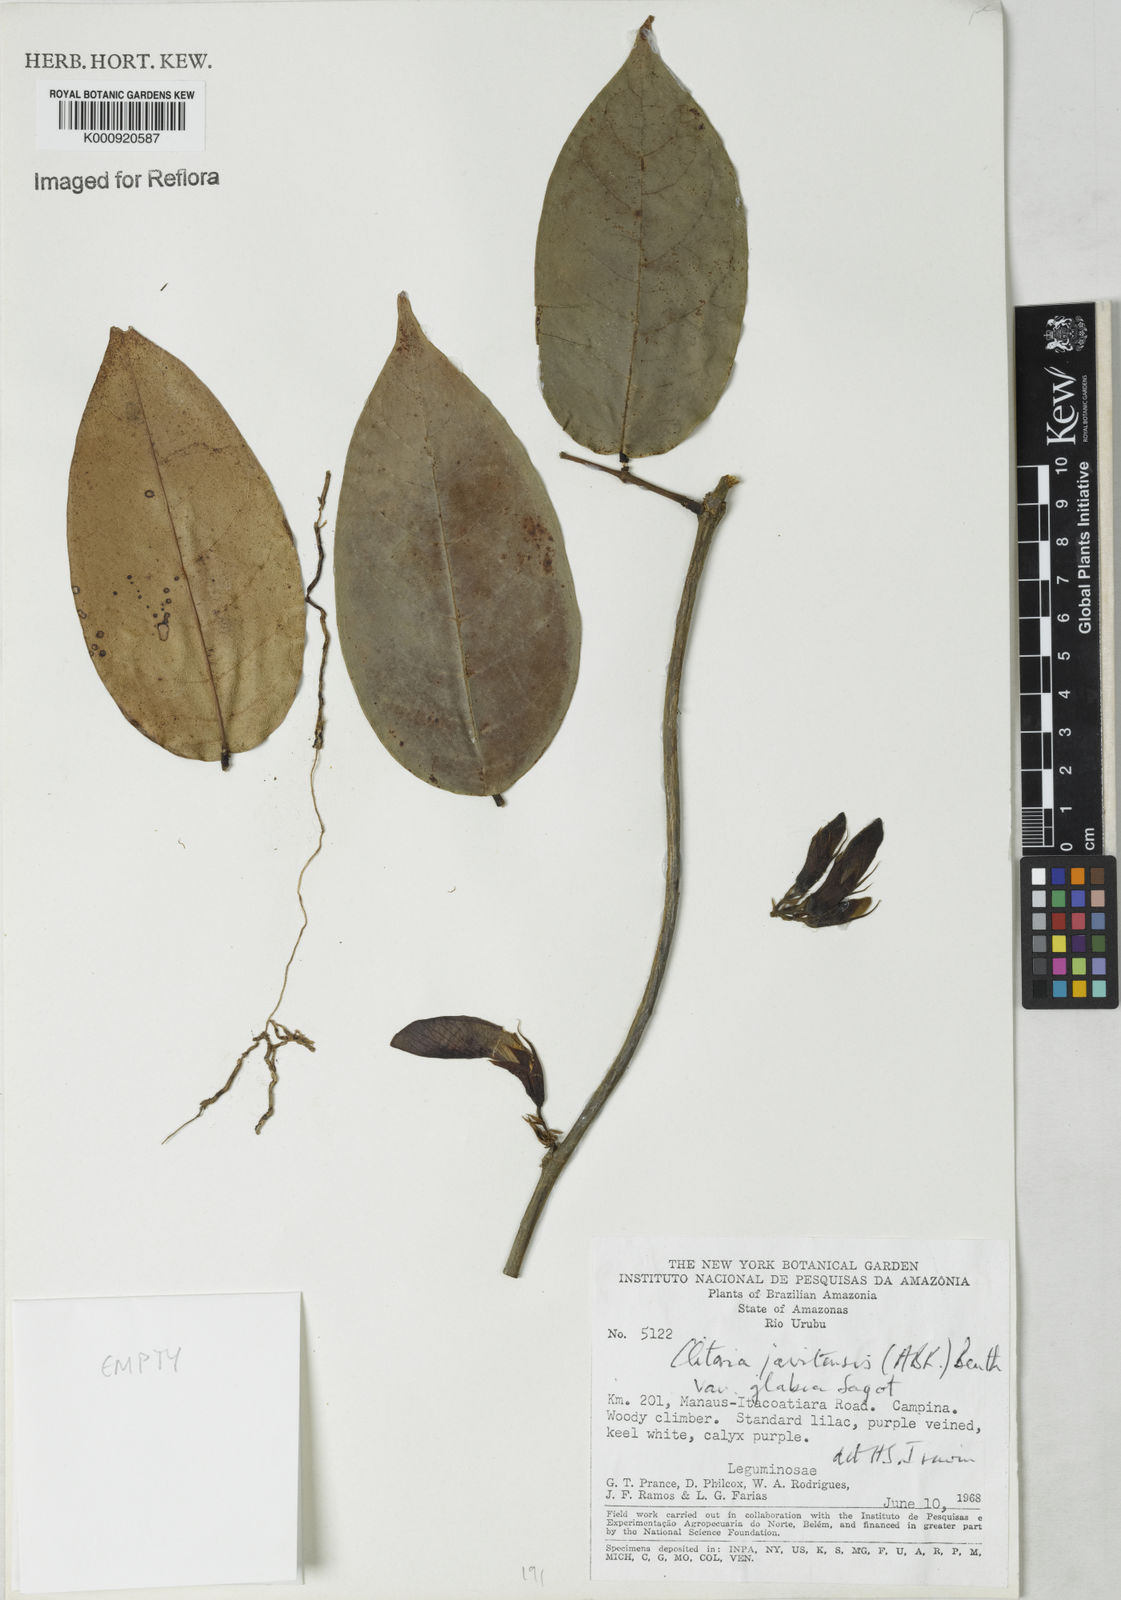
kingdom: Plantae
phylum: Tracheophyta
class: Magnoliopsida
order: Fabales
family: Fabaceae
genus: Clitoria
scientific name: Clitoria sagotii
